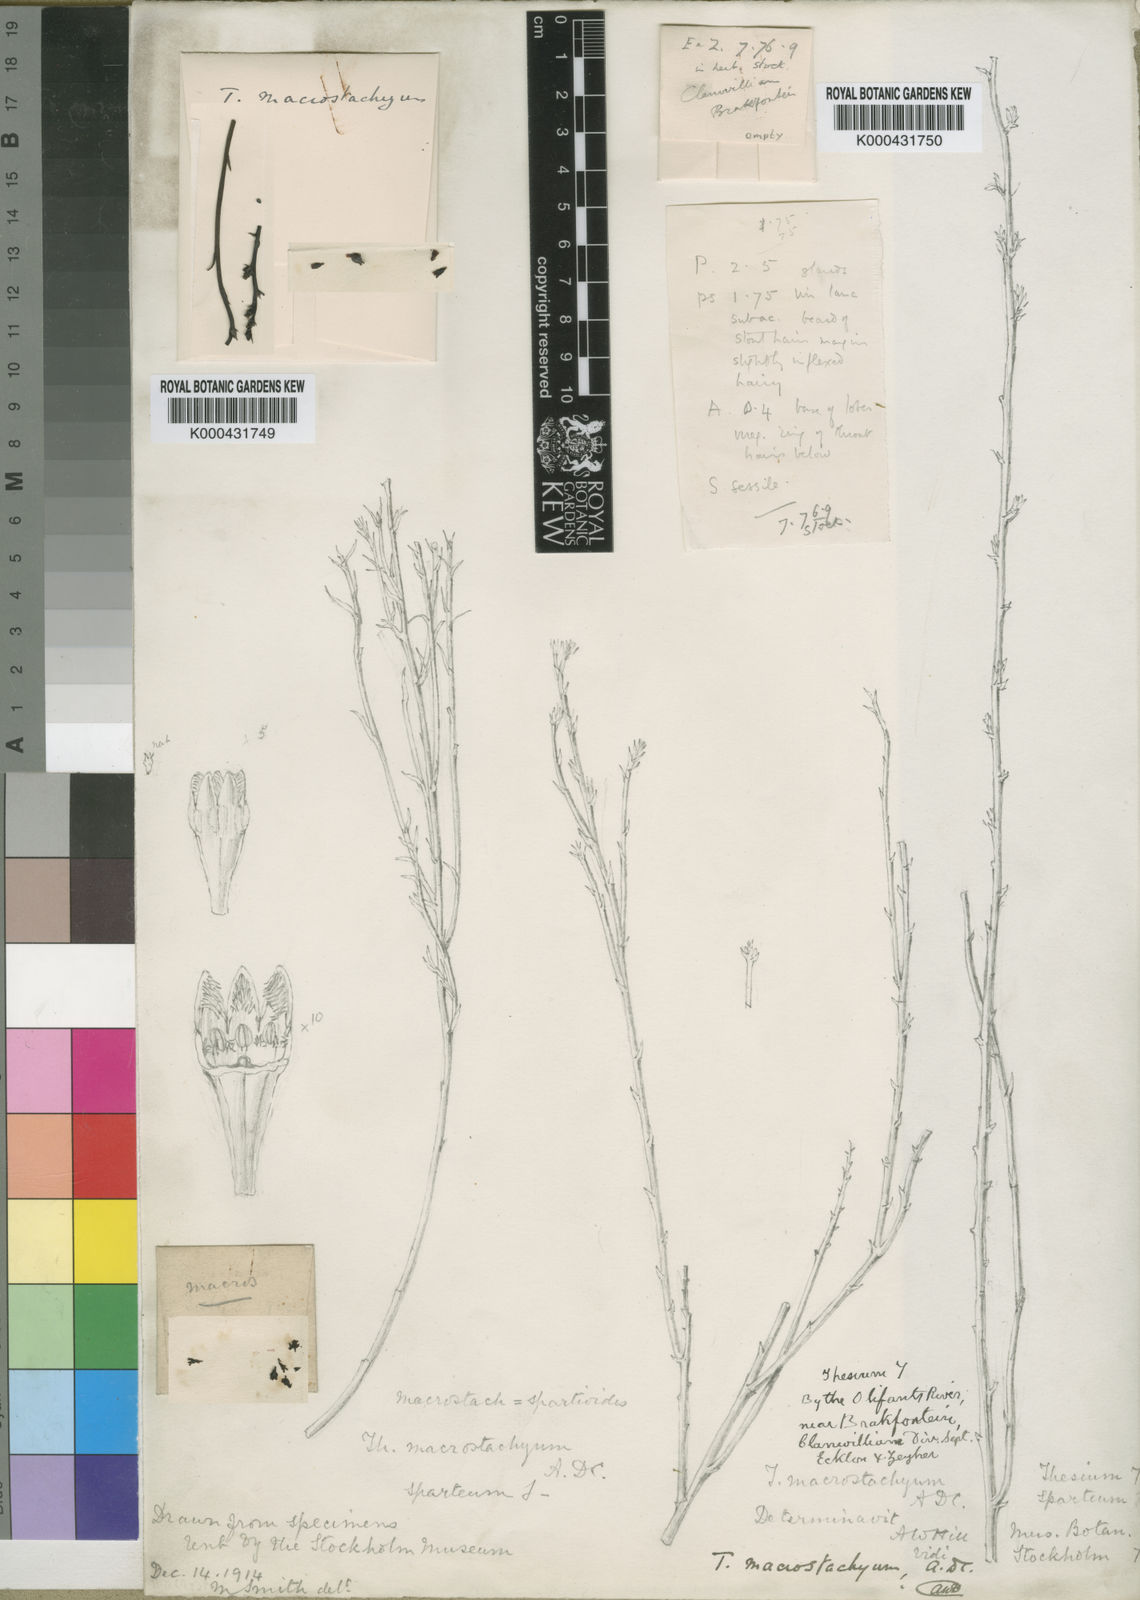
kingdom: Plantae
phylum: Tracheophyta
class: Magnoliopsida
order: Santalales
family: Thesiaceae
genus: Thesium
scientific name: Thesium macrostachyum
